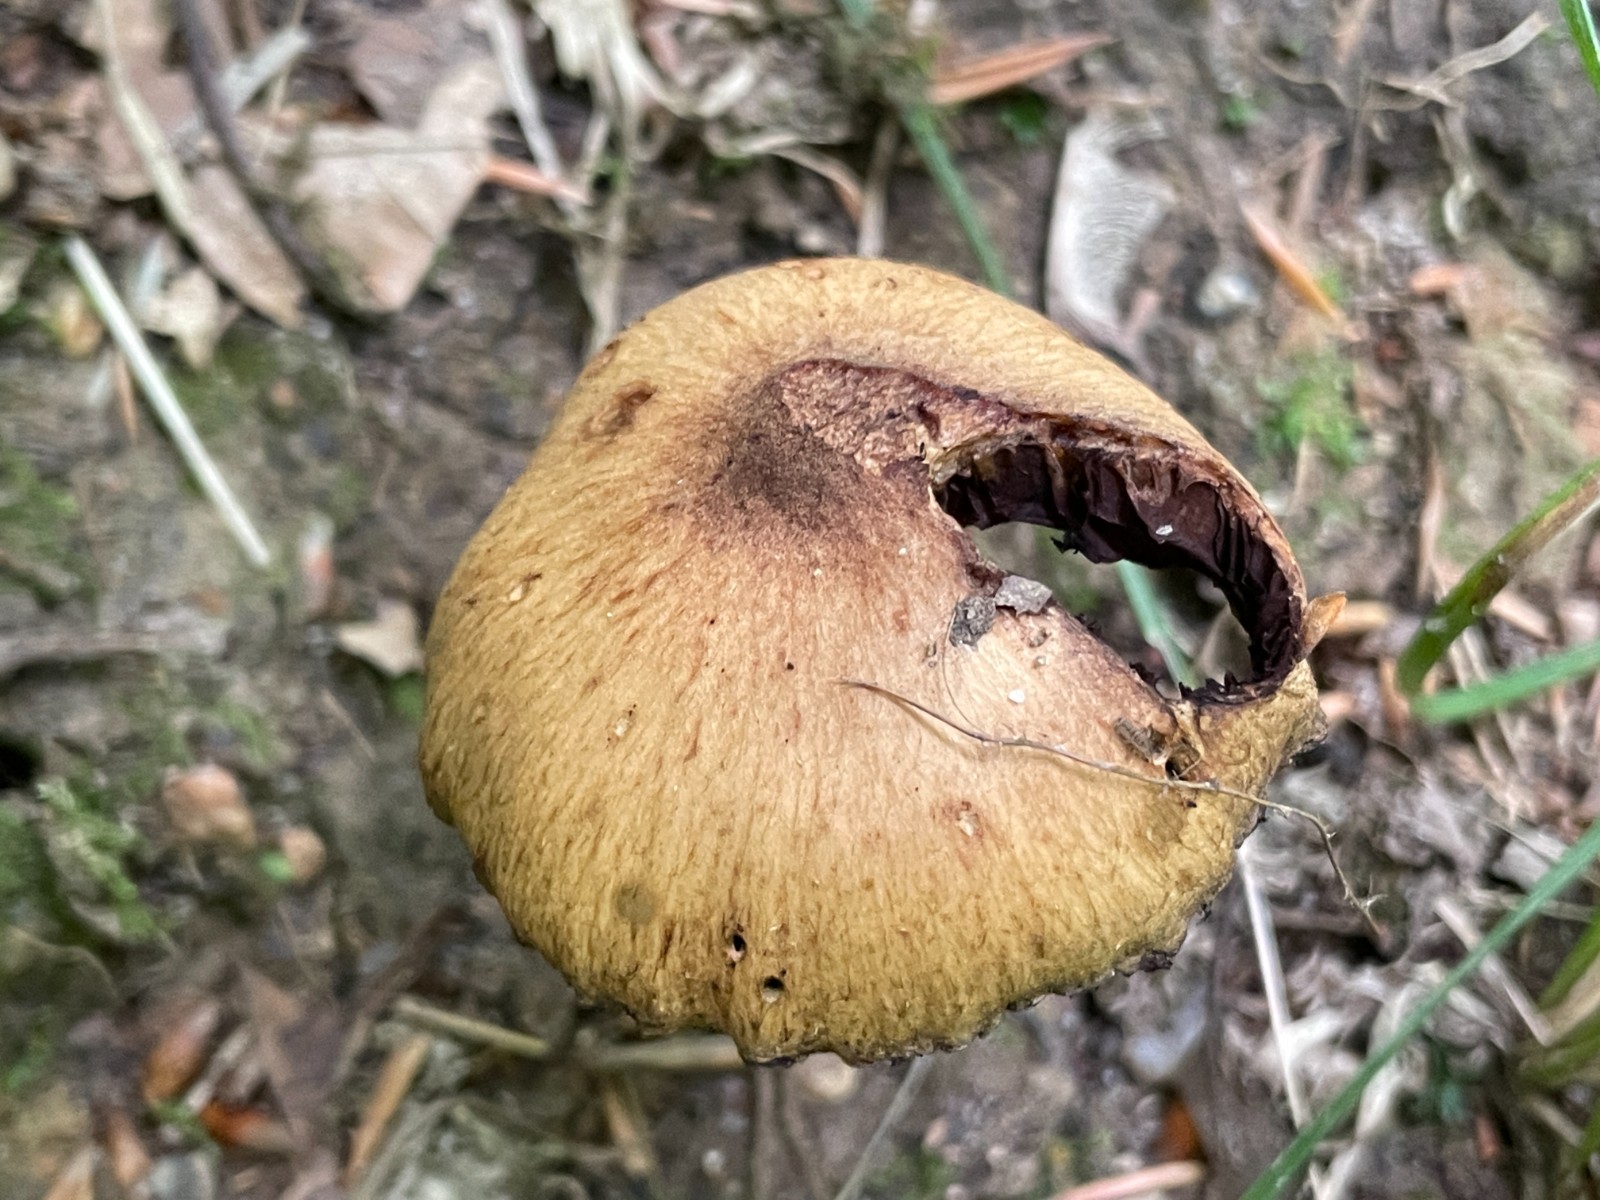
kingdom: Fungi
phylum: Basidiomycota
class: Agaricomycetes
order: Agaricales
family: Psathyrellaceae
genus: Lacrymaria
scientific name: Lacrymaria lacrymabunda
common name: grædende mørkhat
